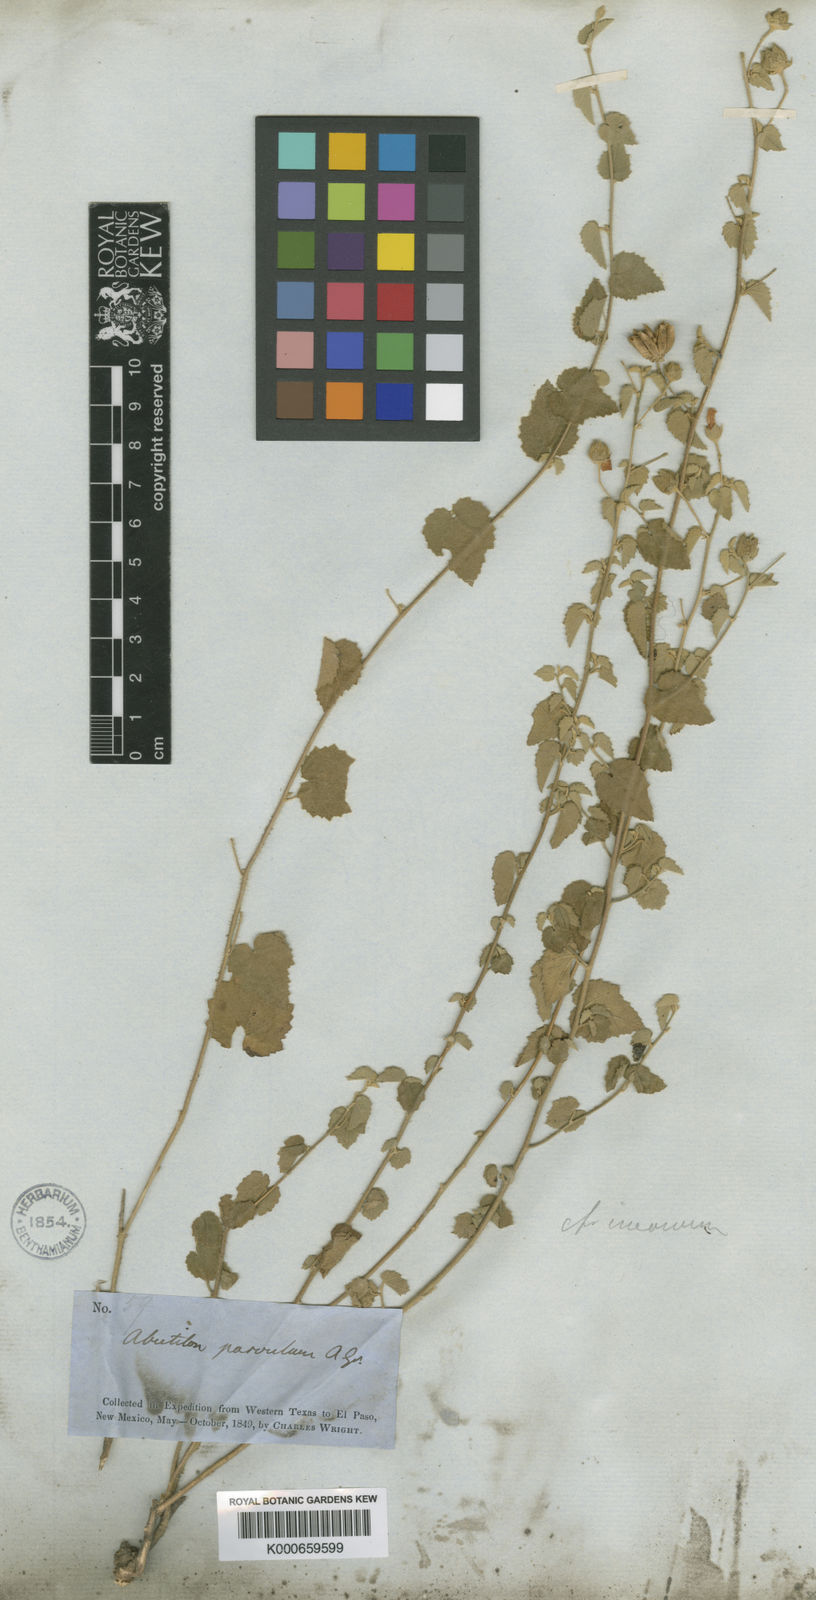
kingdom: Plantae
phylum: Tracheophyta
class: Magnoliopsida
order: Malvales
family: Malvaceae
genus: Abutilon
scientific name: Abutilon parvulum
